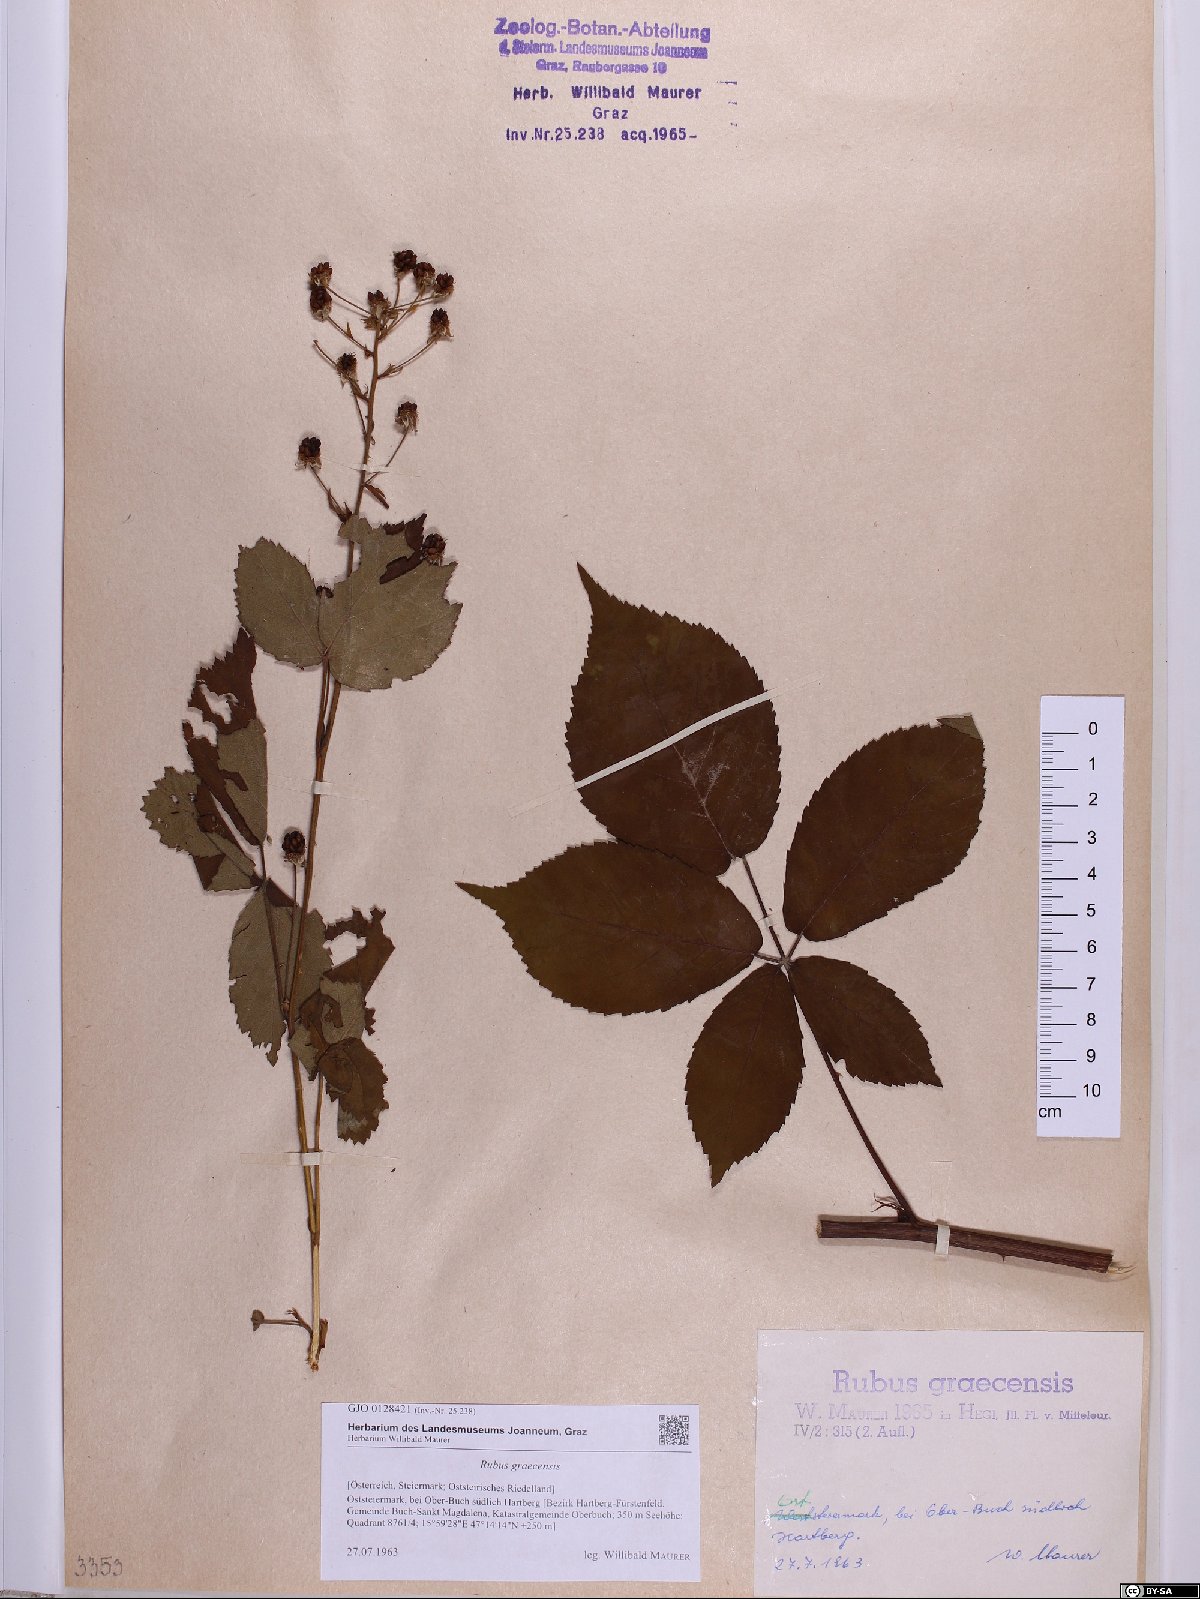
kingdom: Plantae
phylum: Tracheophyta
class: Magnoliopsida
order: Rosales
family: Rosaceae
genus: Rubus
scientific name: Rubus graecensis
